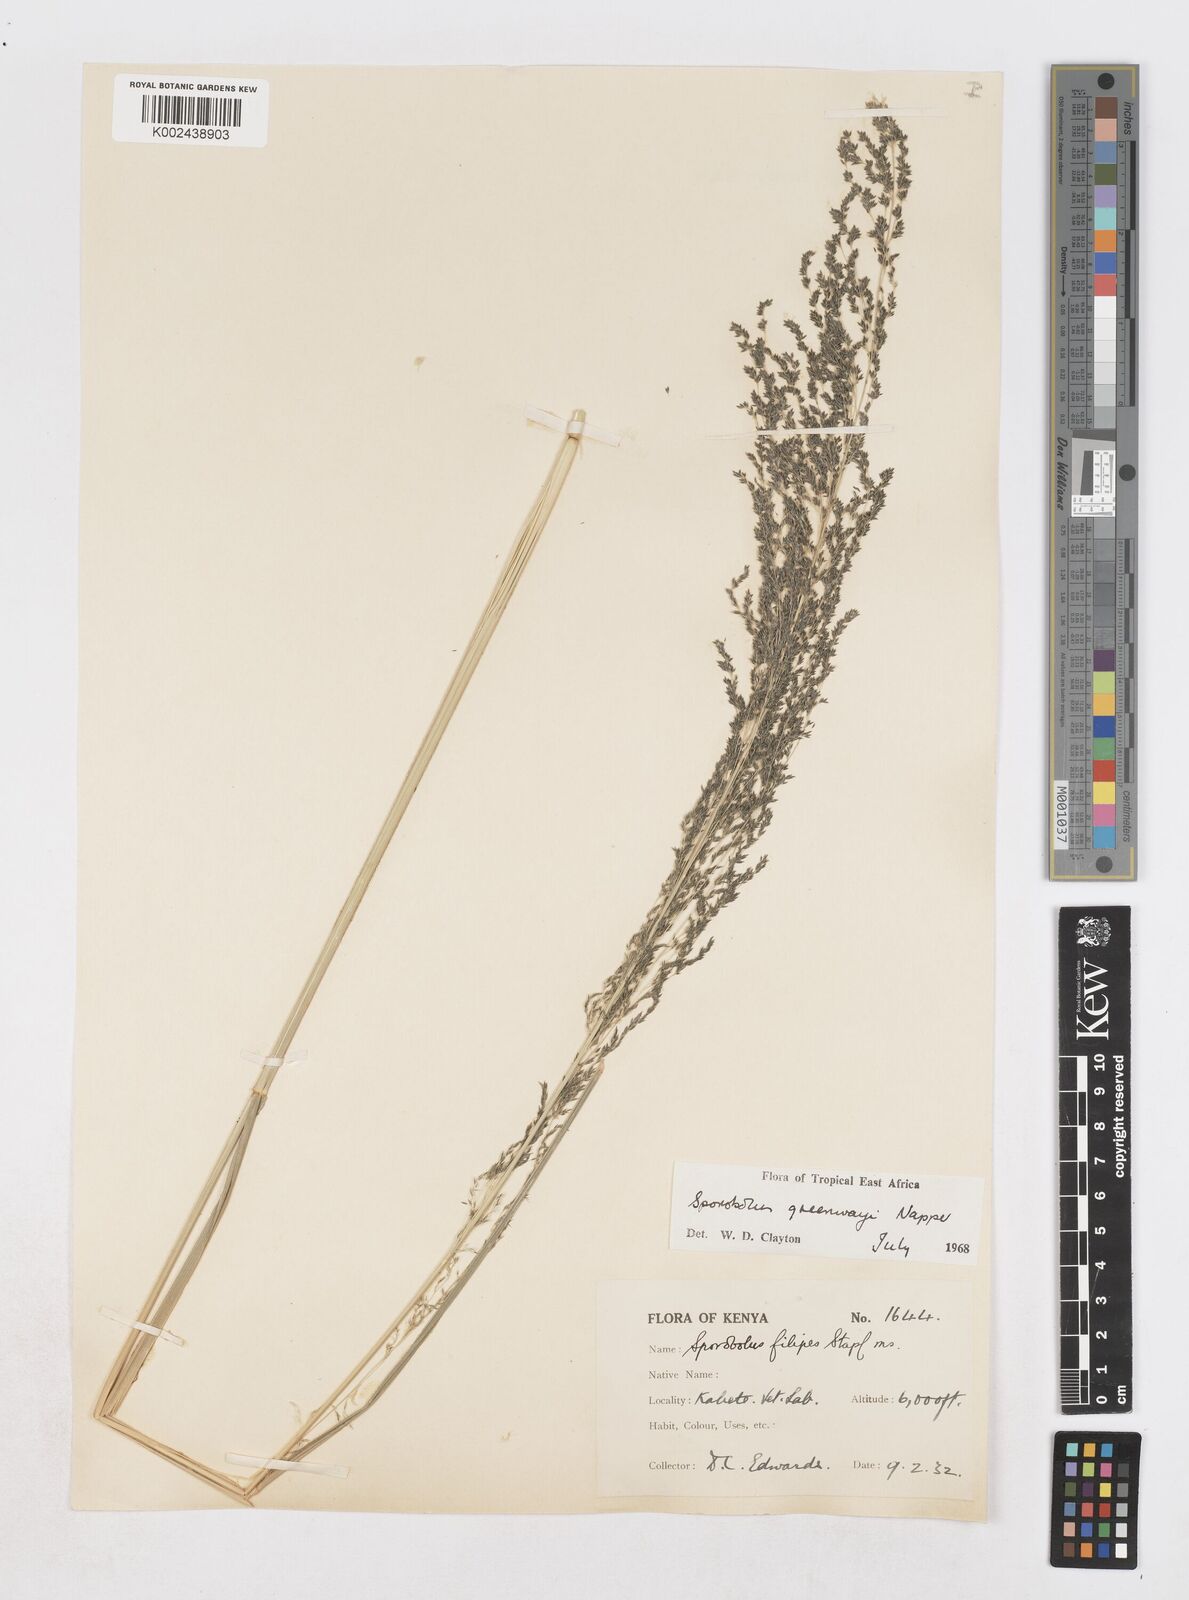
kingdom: Plantae
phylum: Tracheophyta
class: Liliopsida
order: Poales
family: Poaceae
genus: Sporobolus
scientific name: Sporobolus macranthelus
